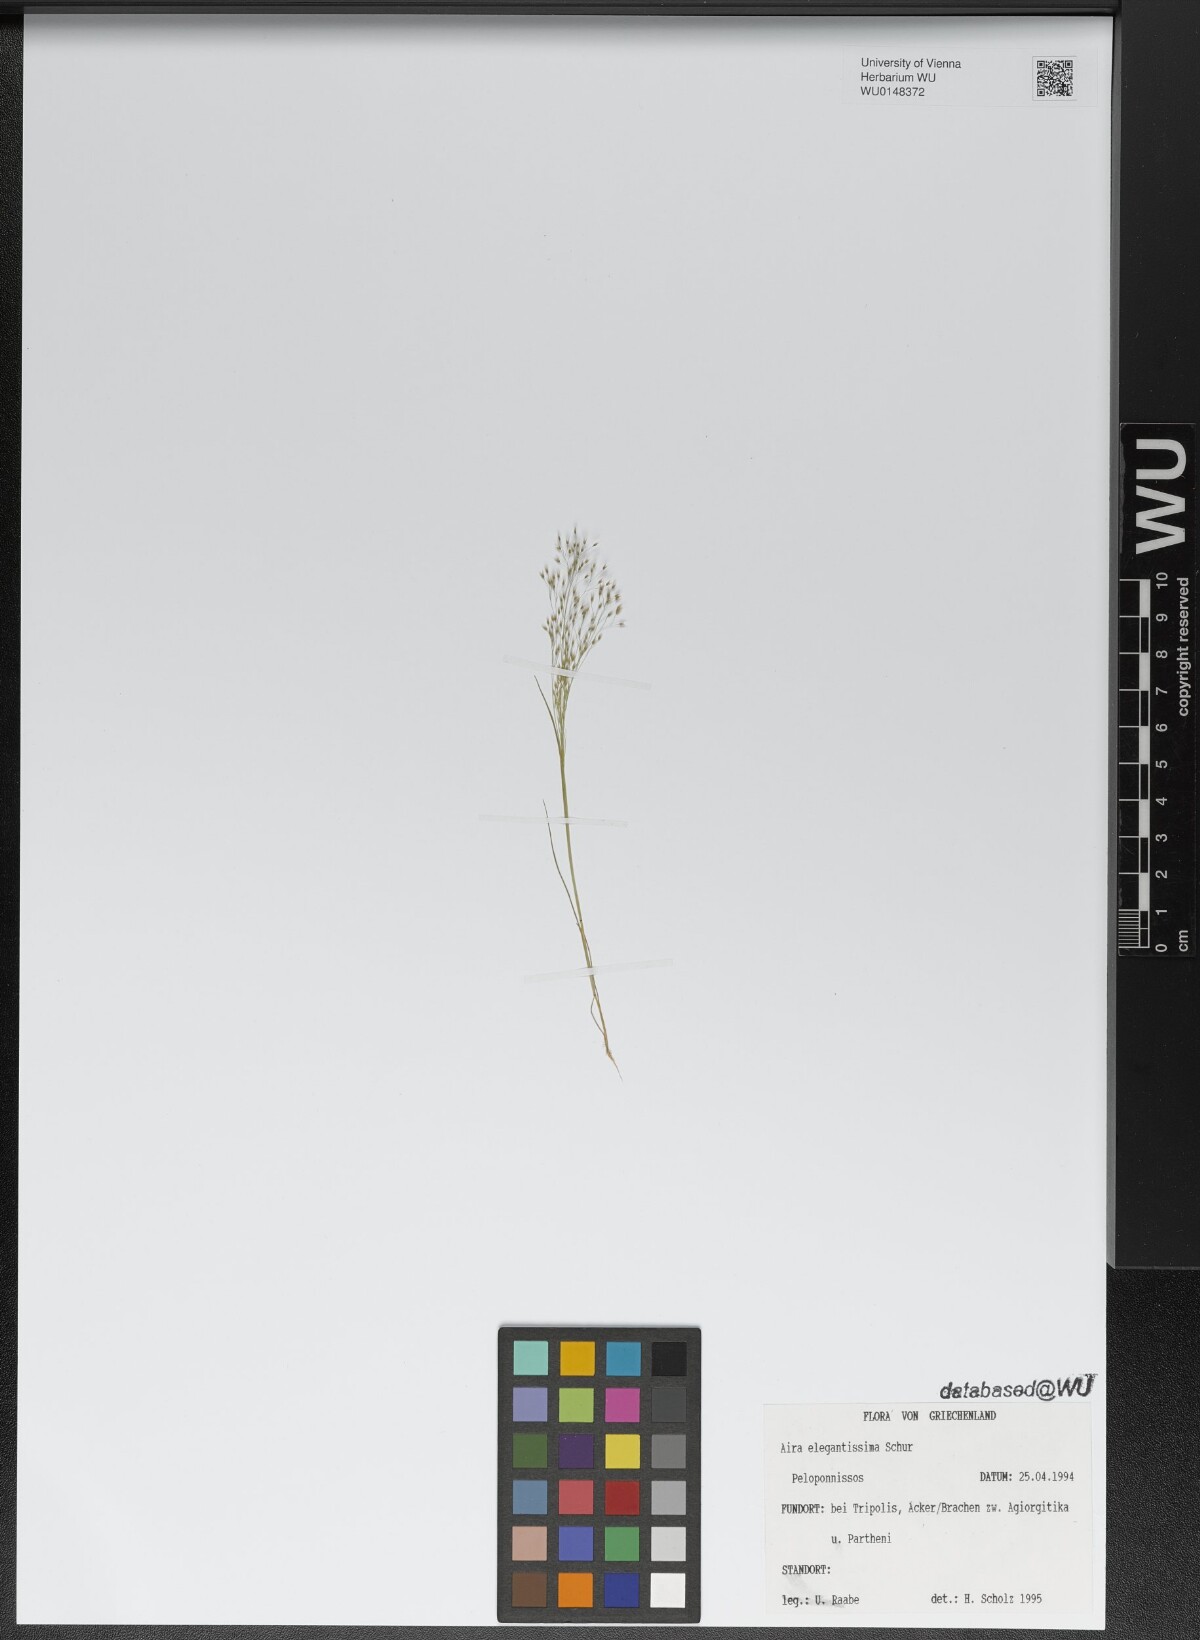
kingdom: Plantae
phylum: Tracheophyta
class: Liliopsida
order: Poales
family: Poaceae
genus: Aira
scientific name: Aira elegans
